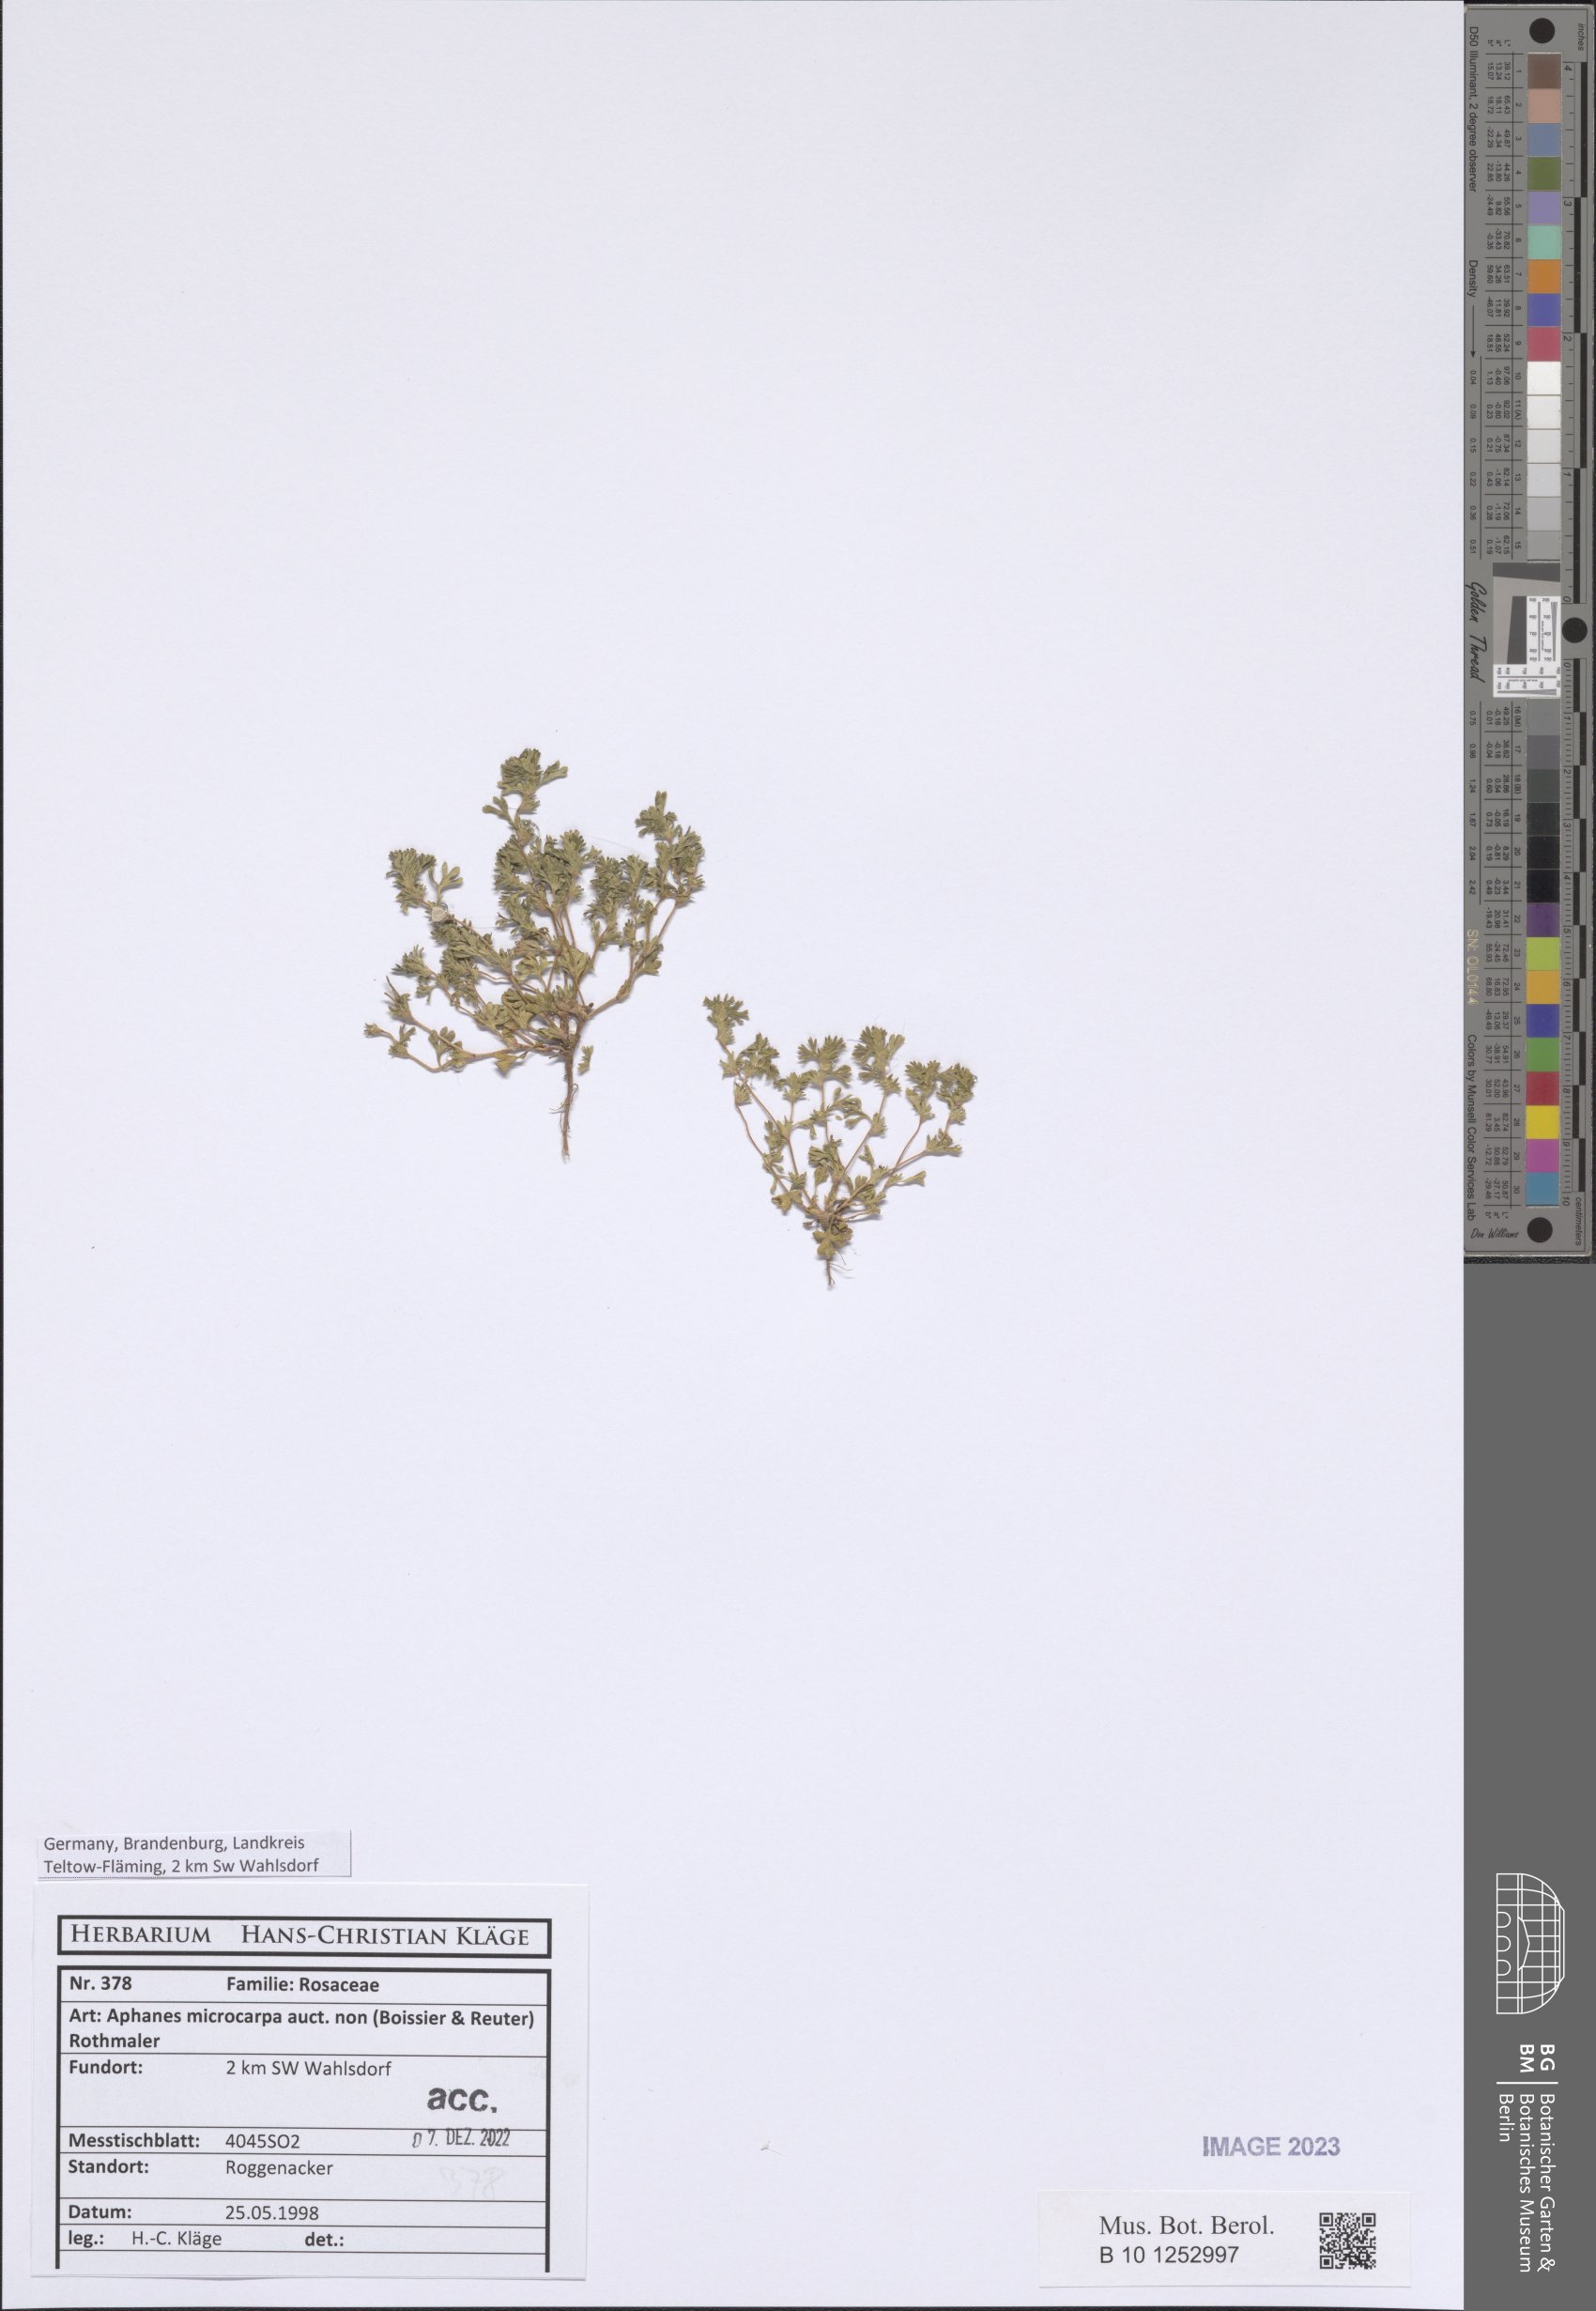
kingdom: Plantae
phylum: Tracheophyta
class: Magnoliopsida
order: Rosales
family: Rosaceae
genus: Aphanes
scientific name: Aphanes microcarpa
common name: Slender parsley piert
